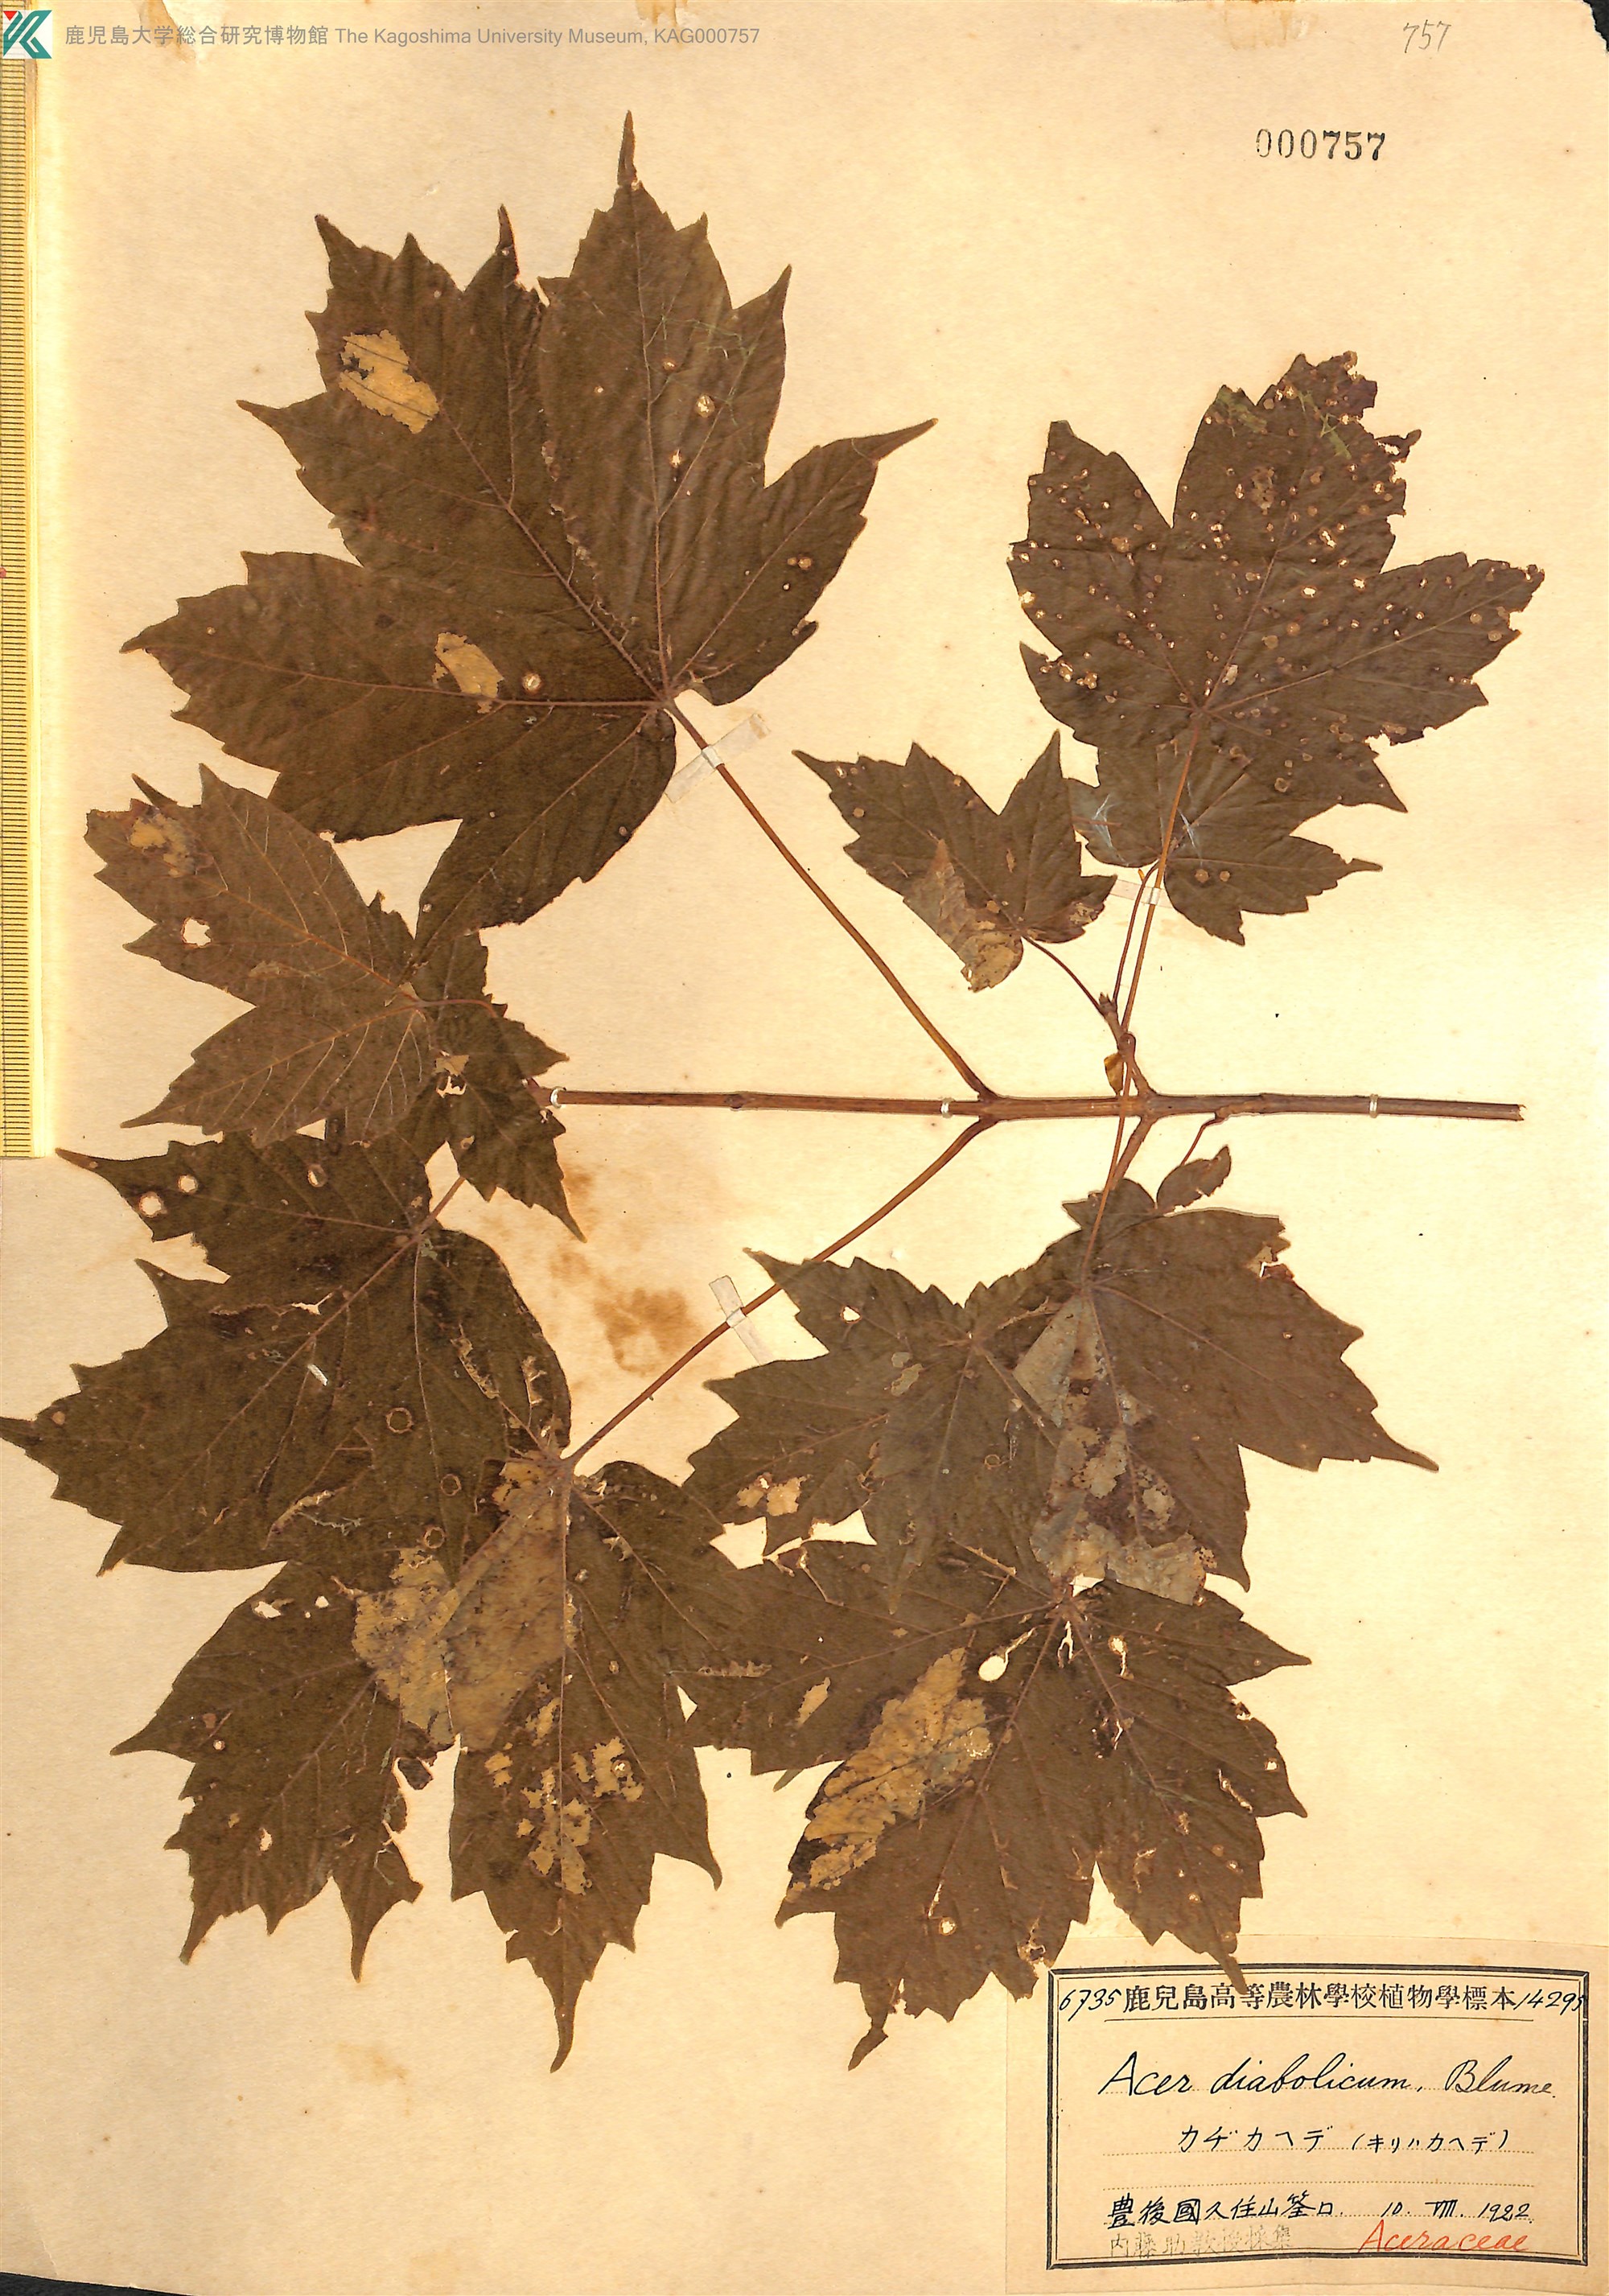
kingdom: Plantae
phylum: Tracheophyta
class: Magnoliopsida
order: Sapindales
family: Sapindaceae
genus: Acer
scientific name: Acer diabolicum
